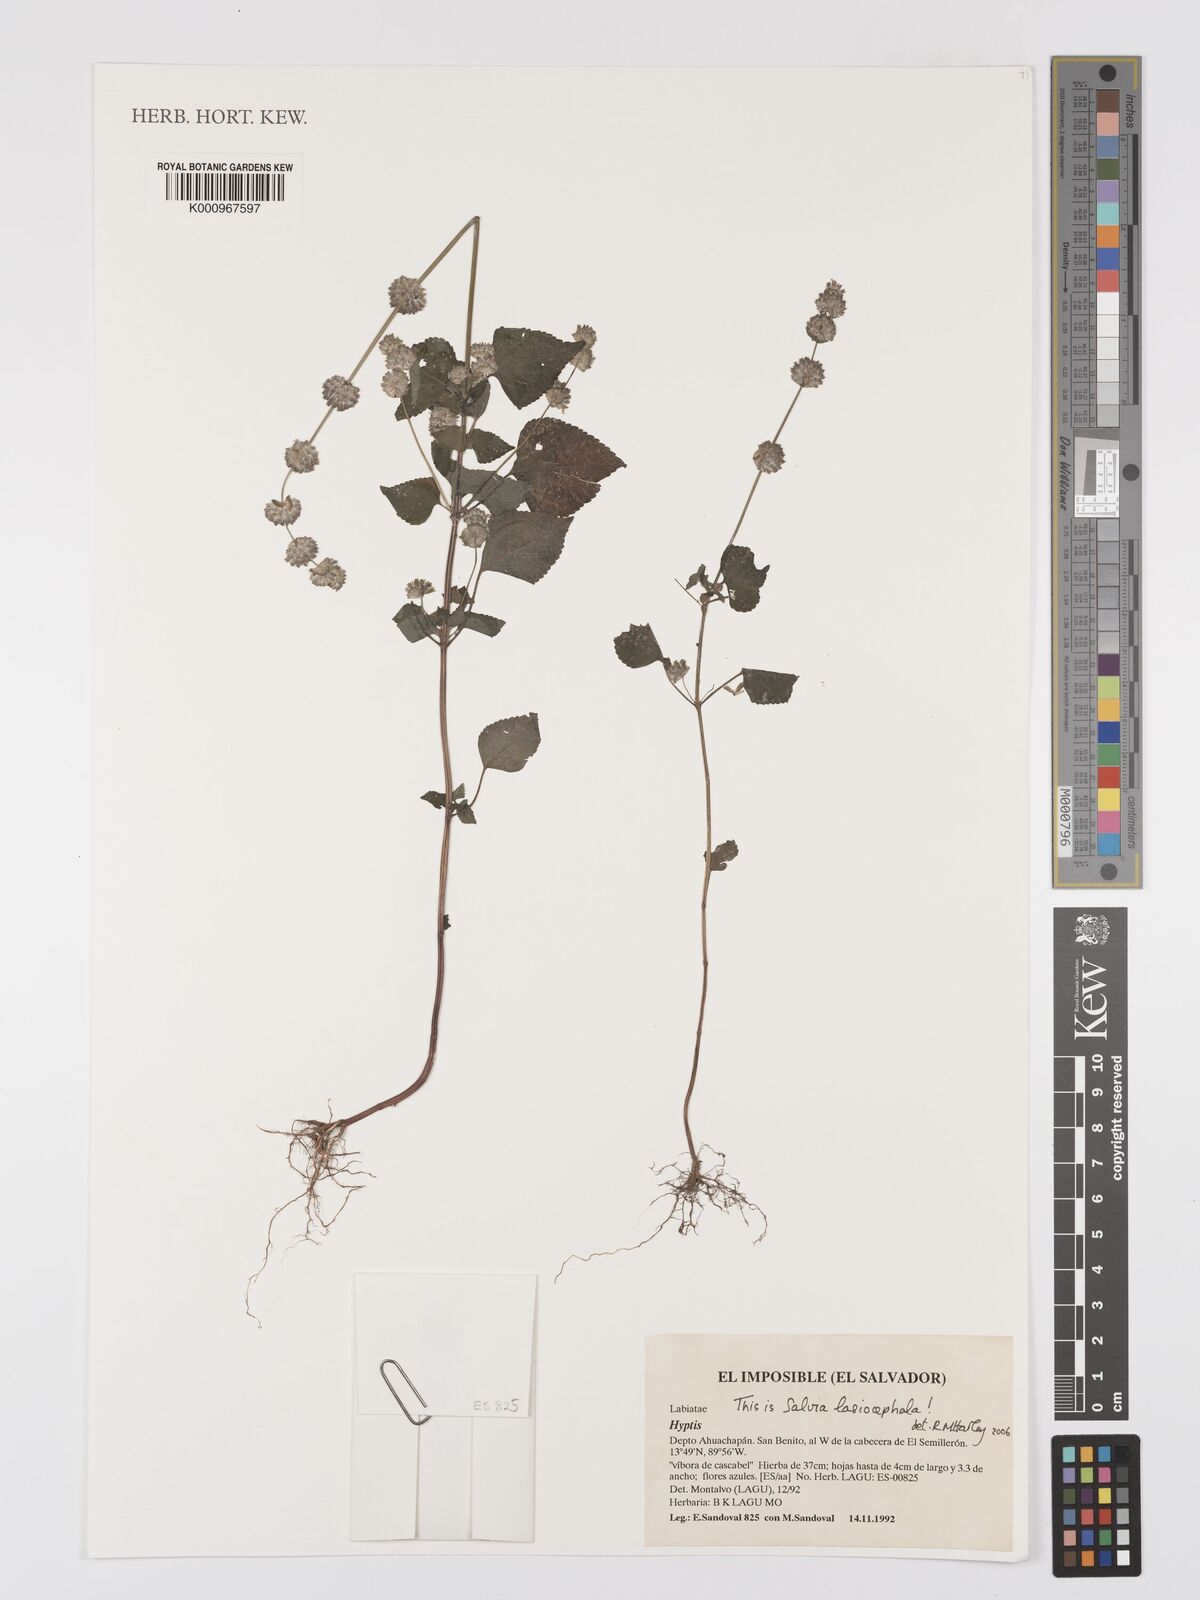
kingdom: Plantae
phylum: Tracheophyta
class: Magnoliopsida
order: Lamiales
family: Lamiaceae
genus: Salvia
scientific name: Salvia lasiocephala
